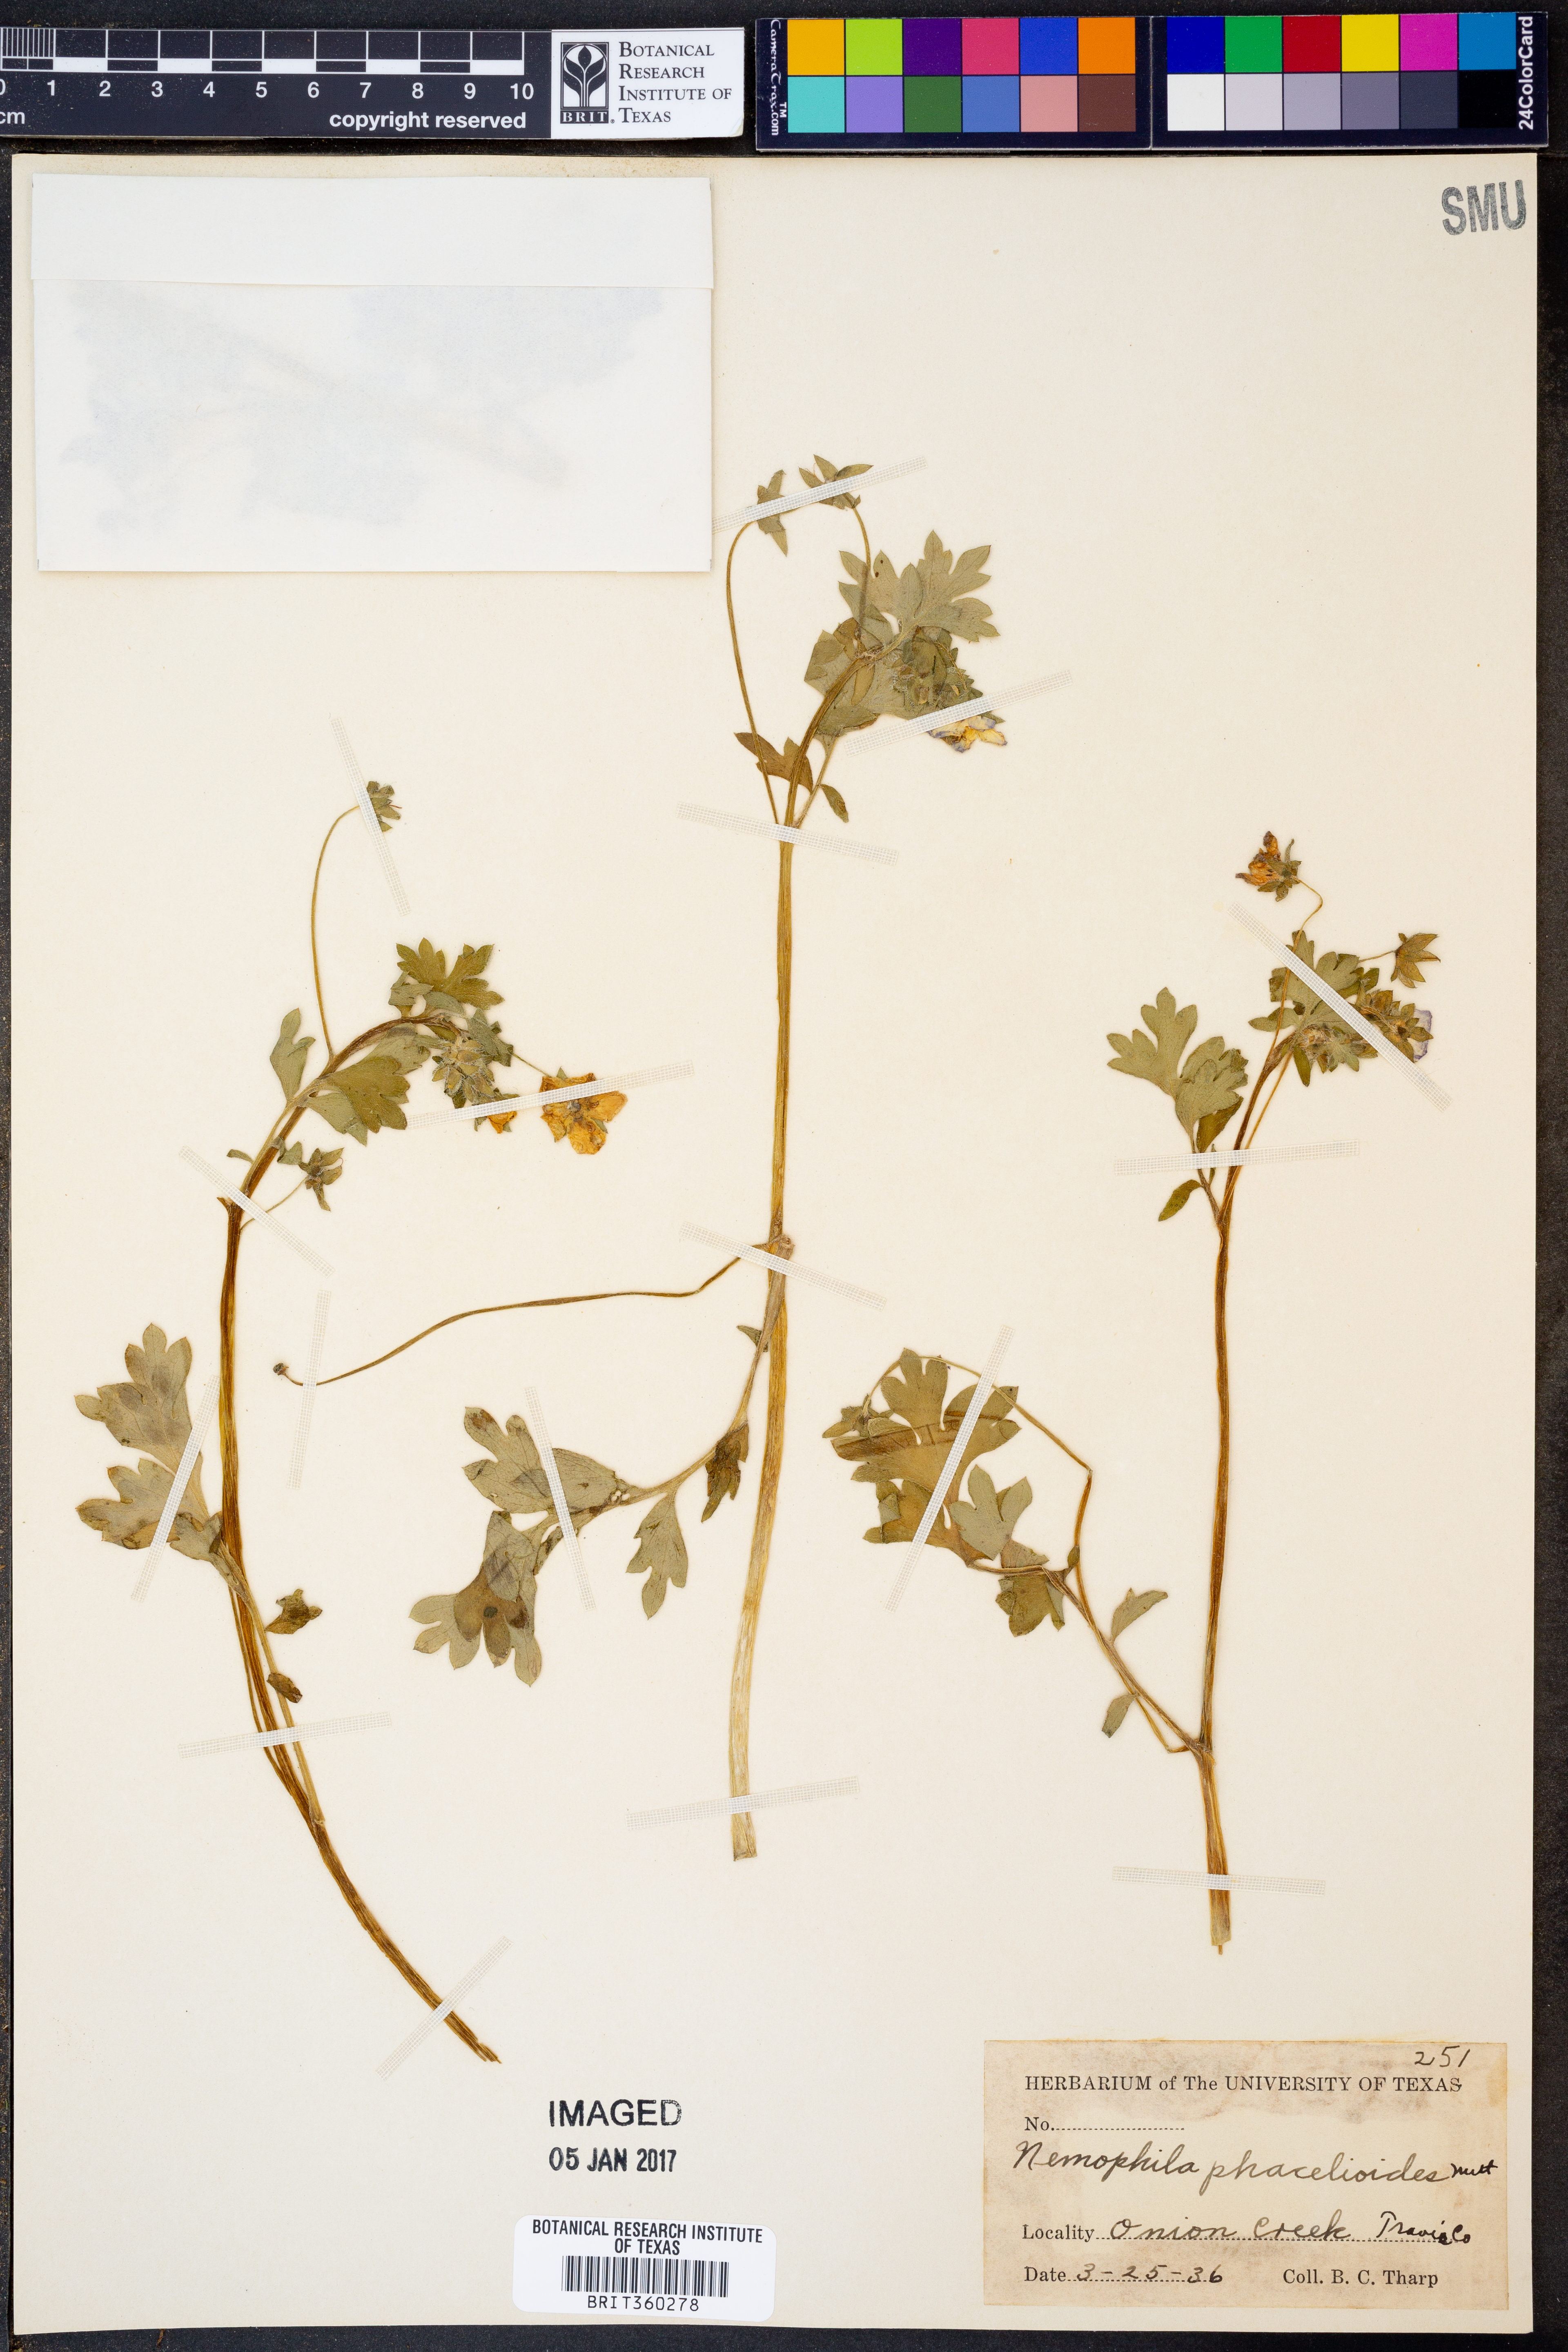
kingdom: Plantae
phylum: Tracheophyta
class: Magnoliopsida
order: Boraginales
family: Hydrophyllaceae
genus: Nemophila
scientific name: Nemophila phacelioides
